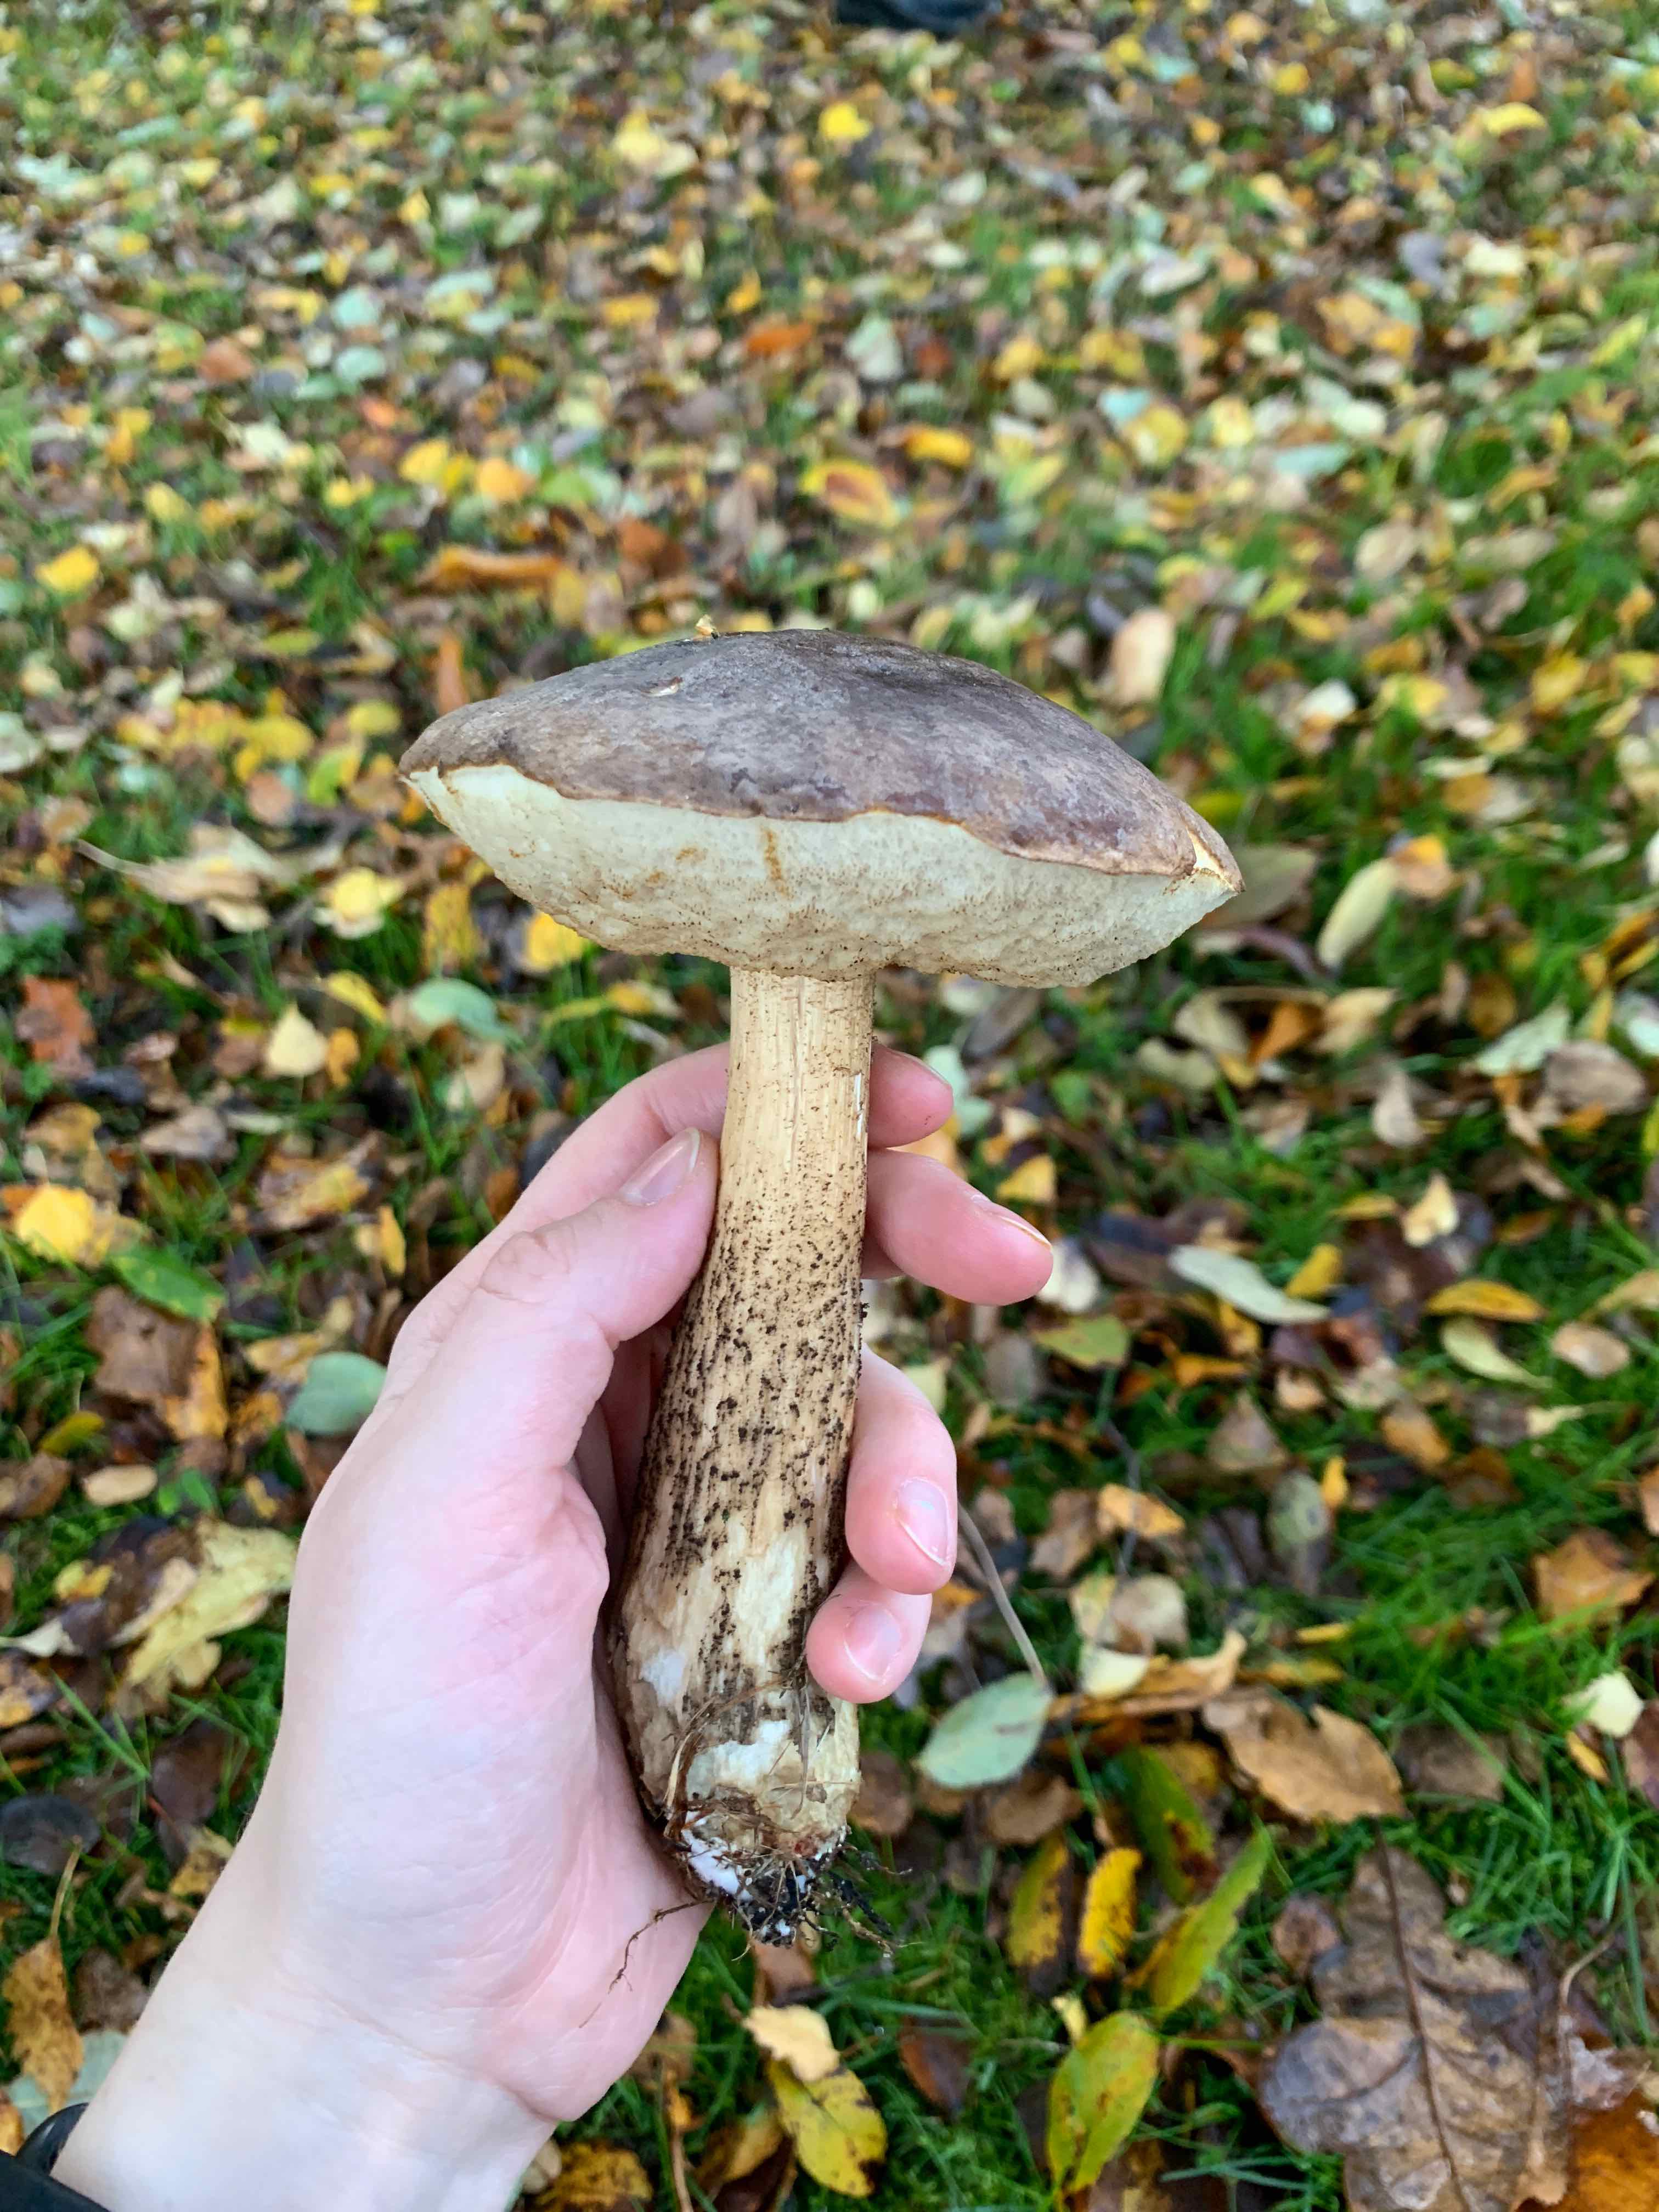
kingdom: Fungi
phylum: Basidiomycota
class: Agaricomycetes
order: Boletales
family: Boletaceae
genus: Leccinum
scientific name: Leccinum
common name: skælrørhat
